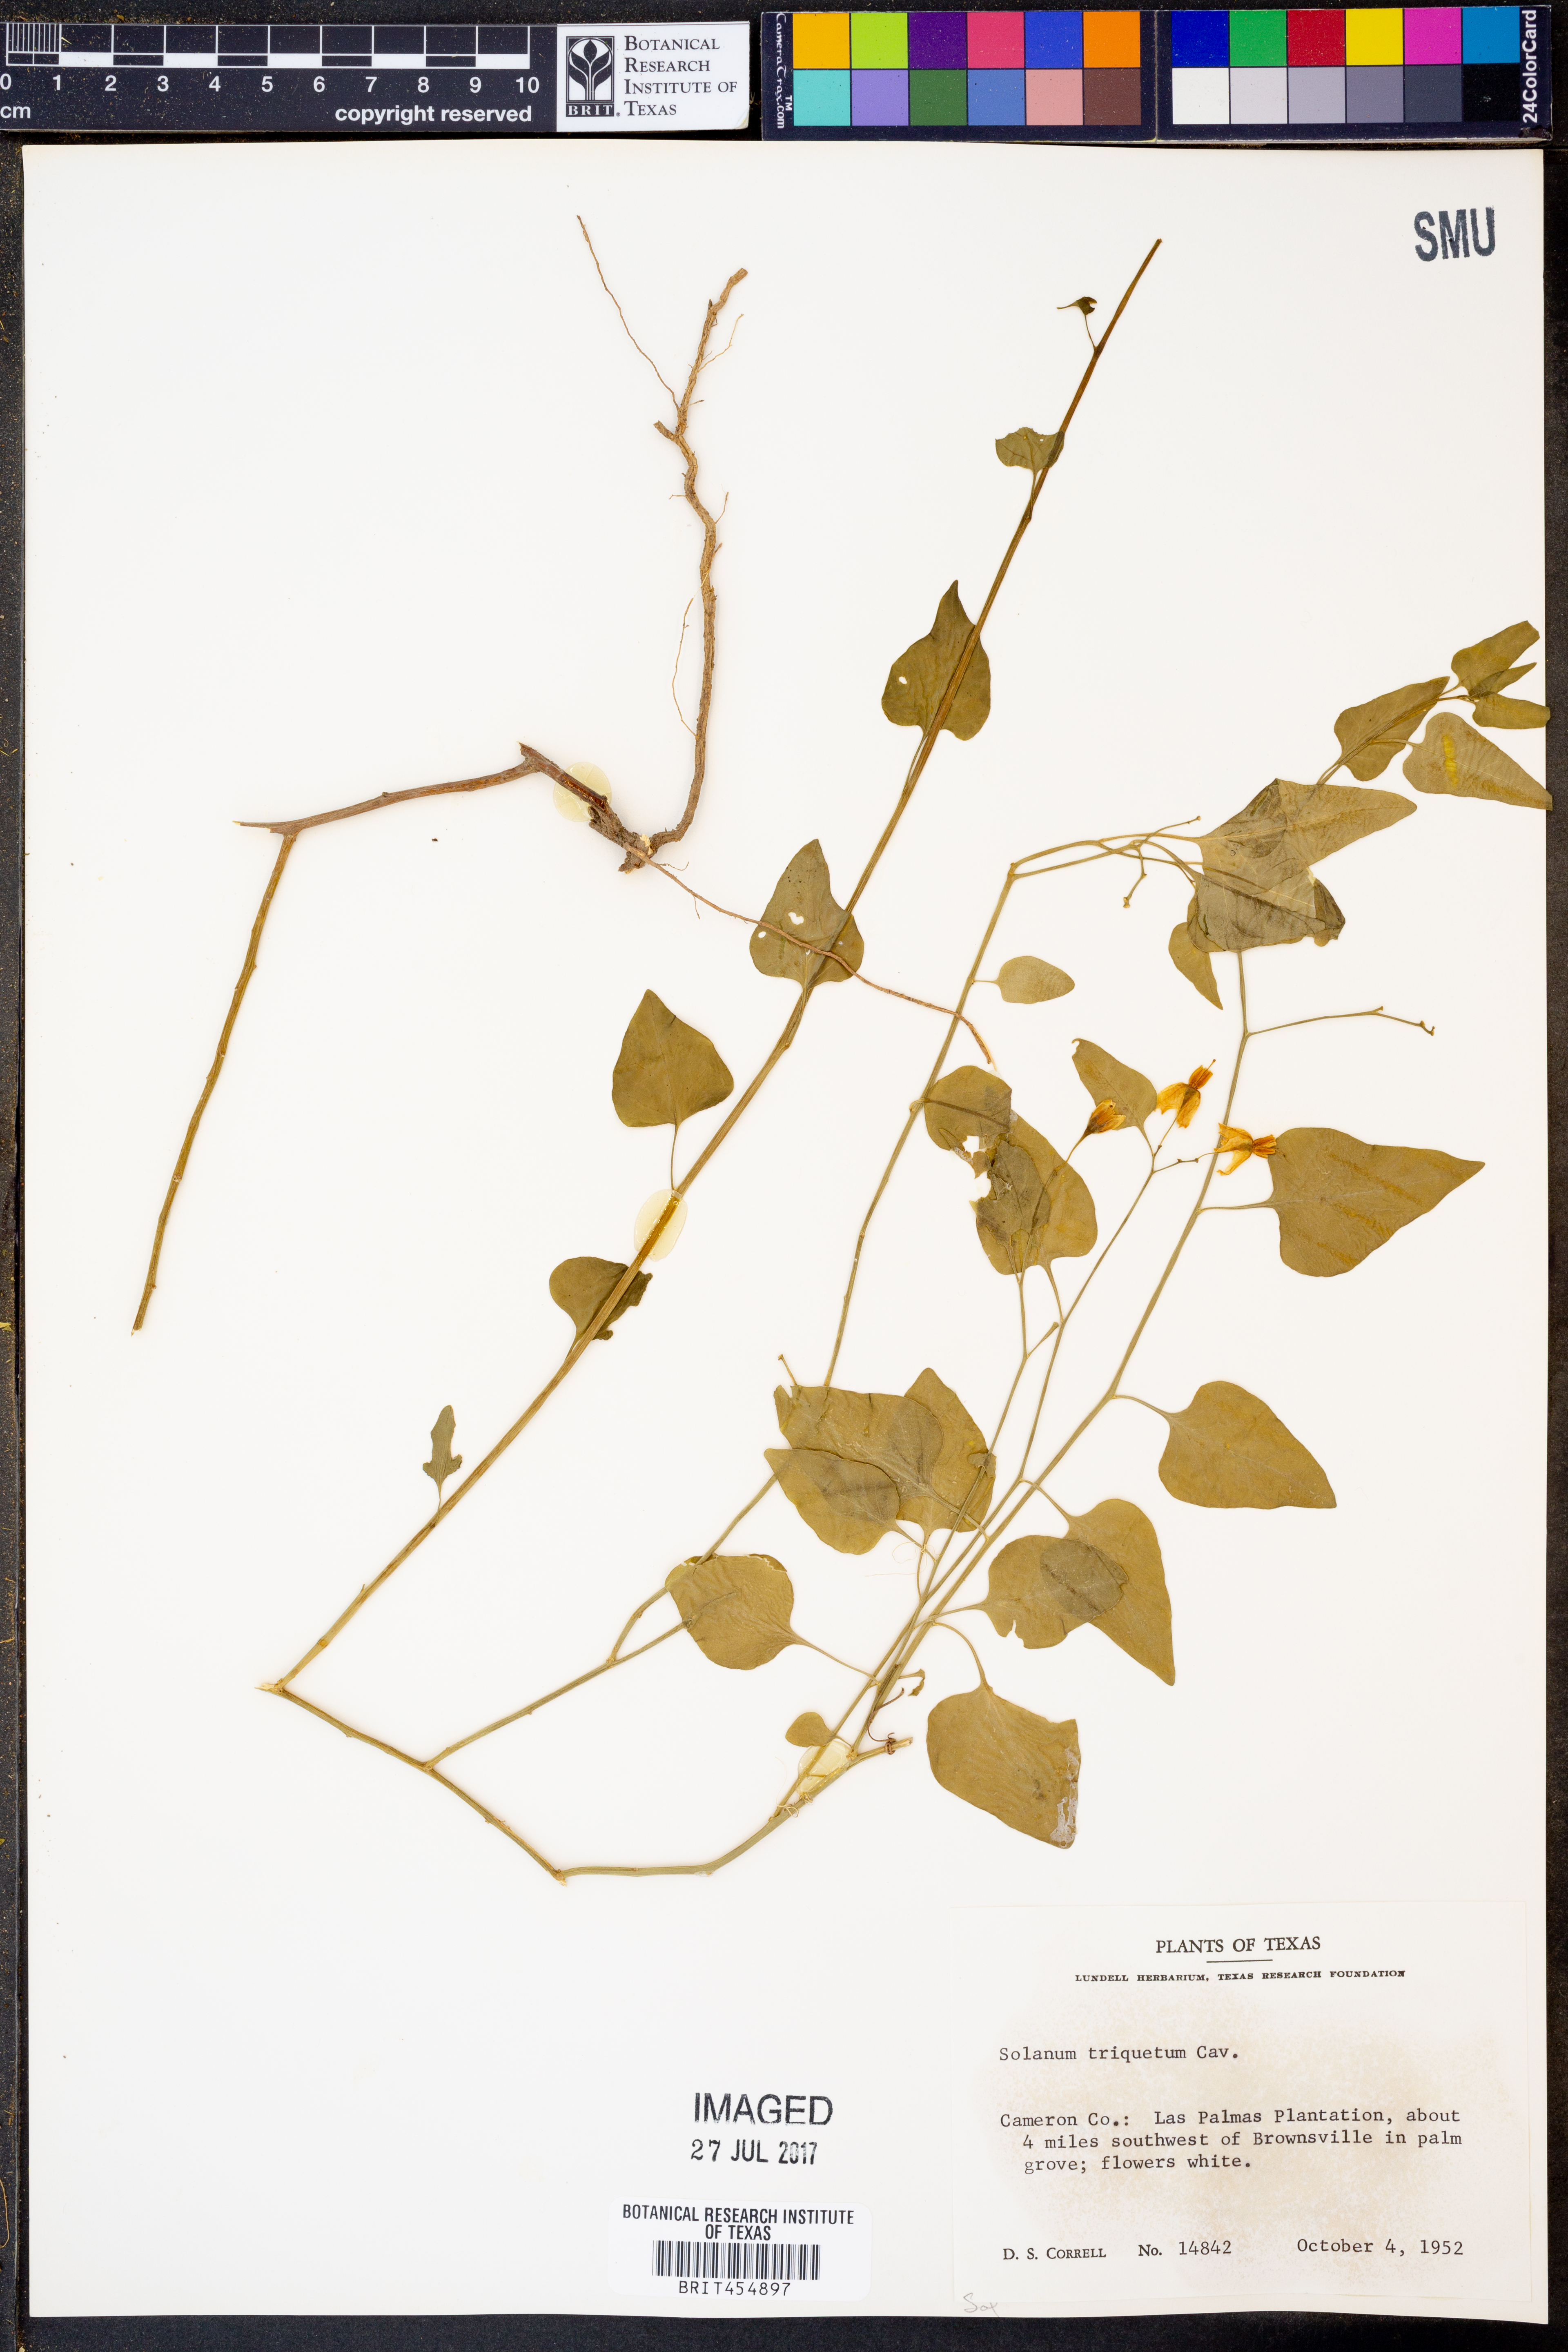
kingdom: Plantae
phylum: Tracheophyta
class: Magnoliopsida
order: Solanales
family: Solanaceae
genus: Solanum
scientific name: Solanum triquetrum
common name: Texas nightshade
